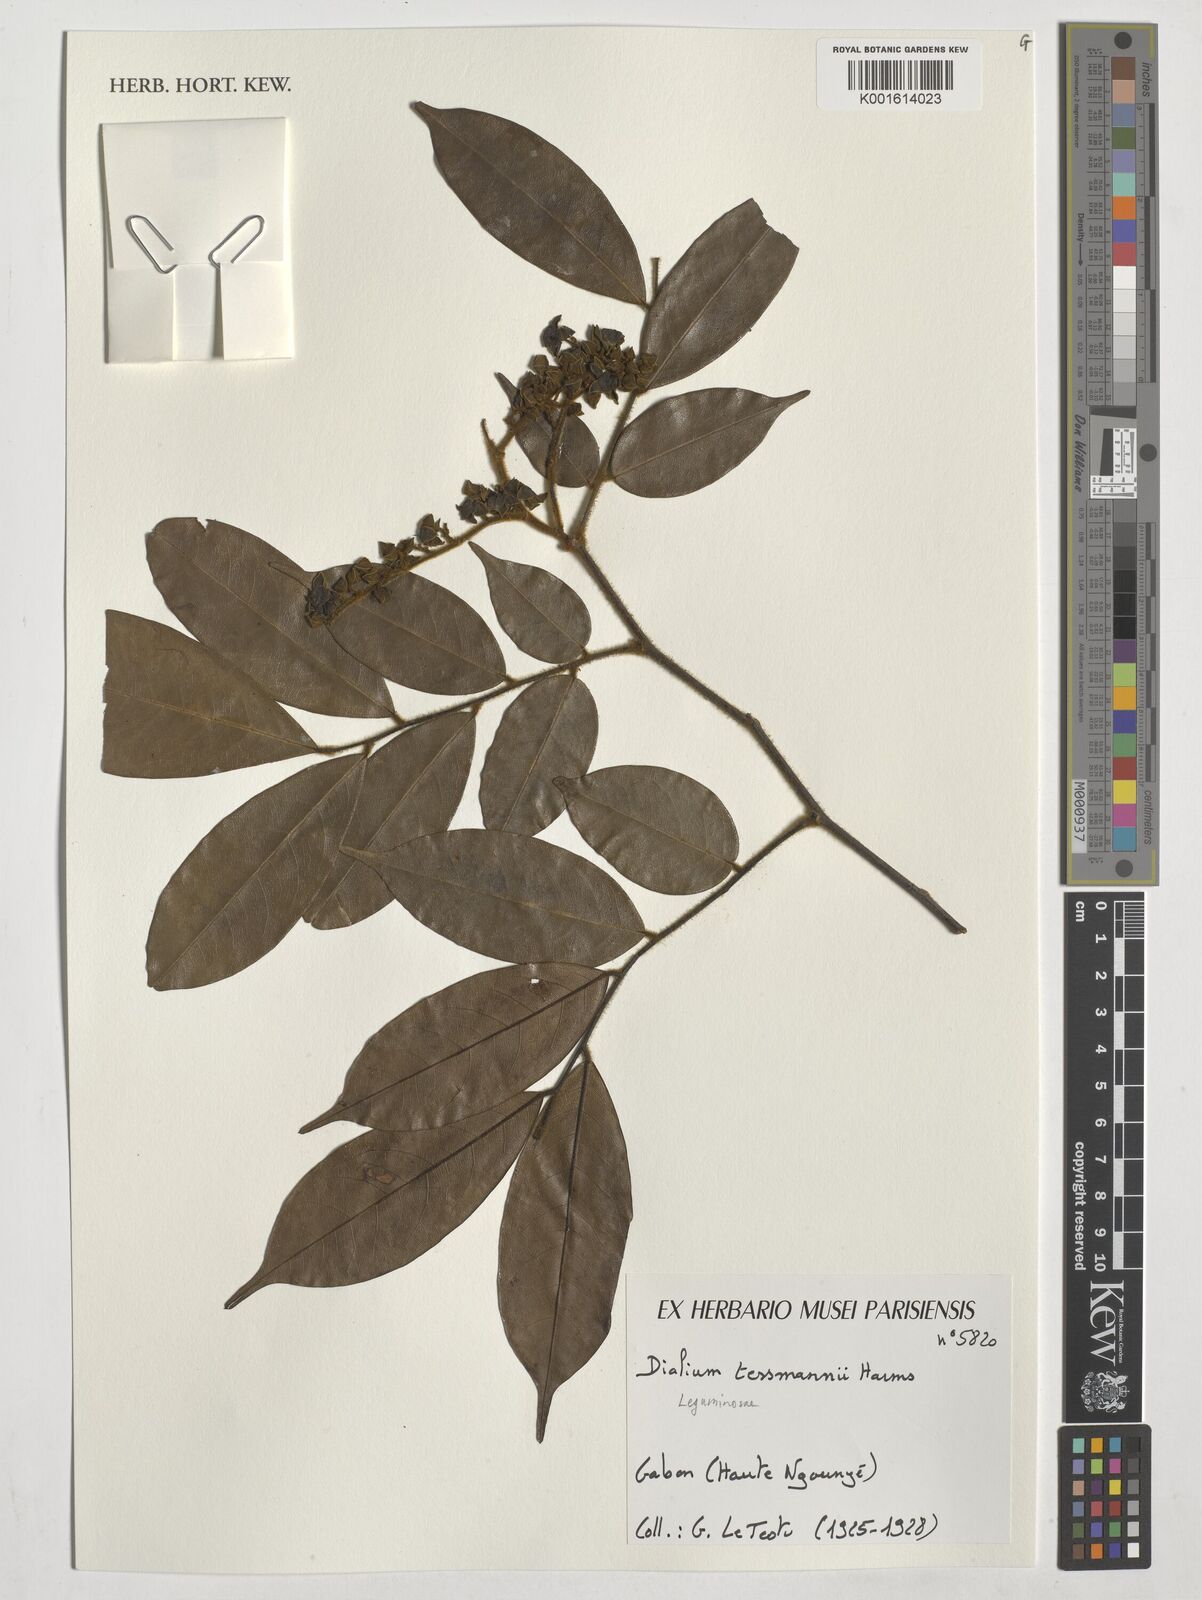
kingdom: Plantae
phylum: Tracheophyta
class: Magnoliopsida
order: Fabales
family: Fabaceae
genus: Dialium
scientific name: Dialium tessmannii
